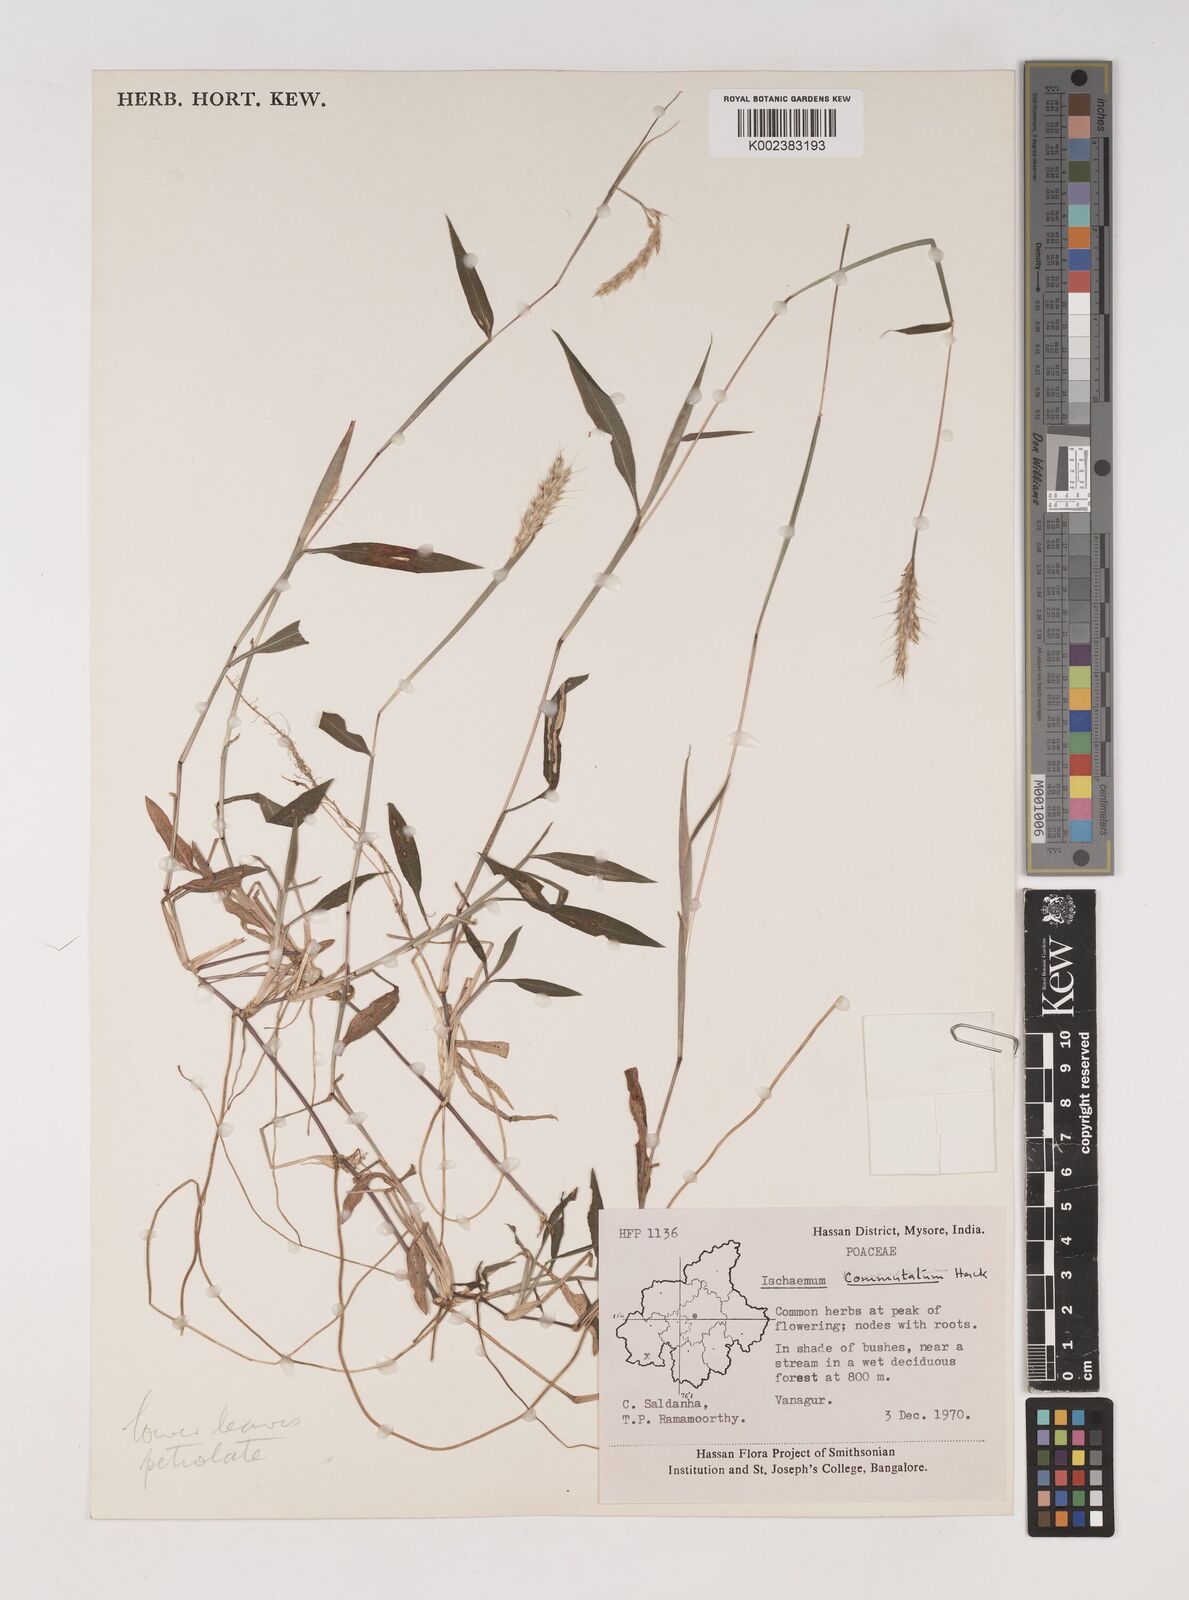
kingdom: Plantae
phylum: Tracheophyta
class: Liliopsida
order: Poales
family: Poaceae
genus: Ischaemum
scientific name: Ischaemum commutatum
